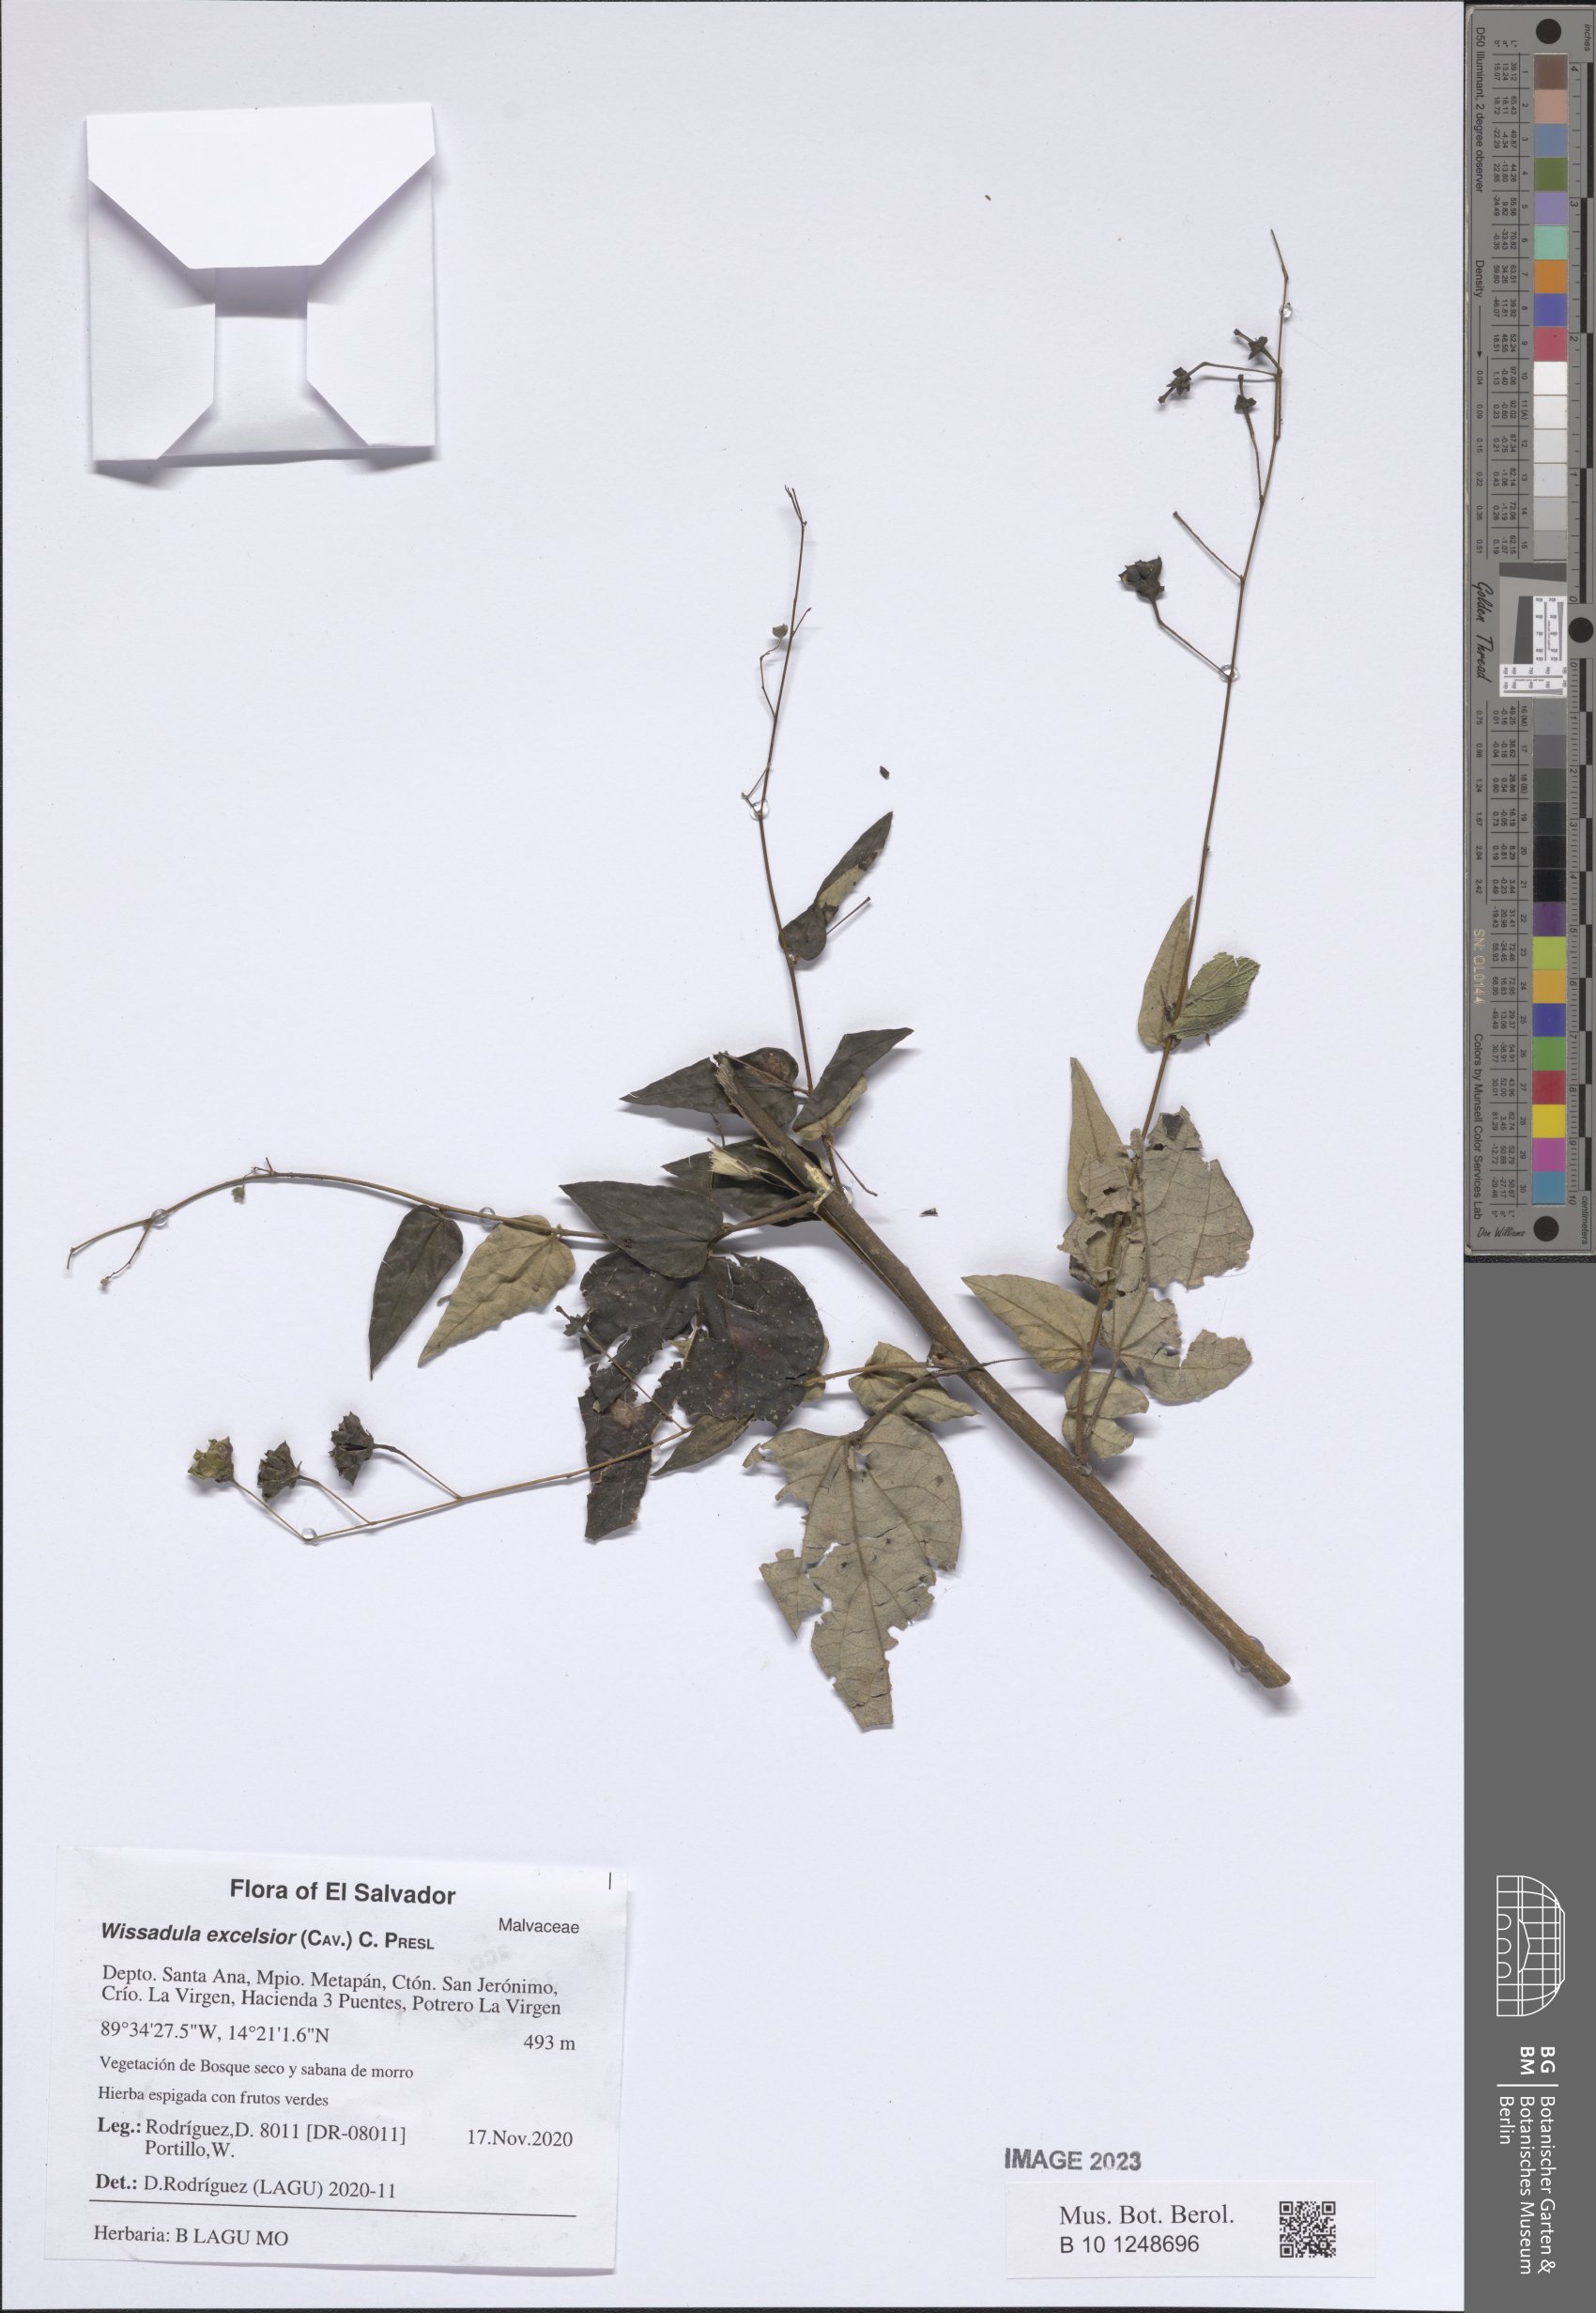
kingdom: Plantae
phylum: Tracheophyta
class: Magnoliopsida
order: Malvales
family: Malvaceae
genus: Wissadula
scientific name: Wissadula excelsior
